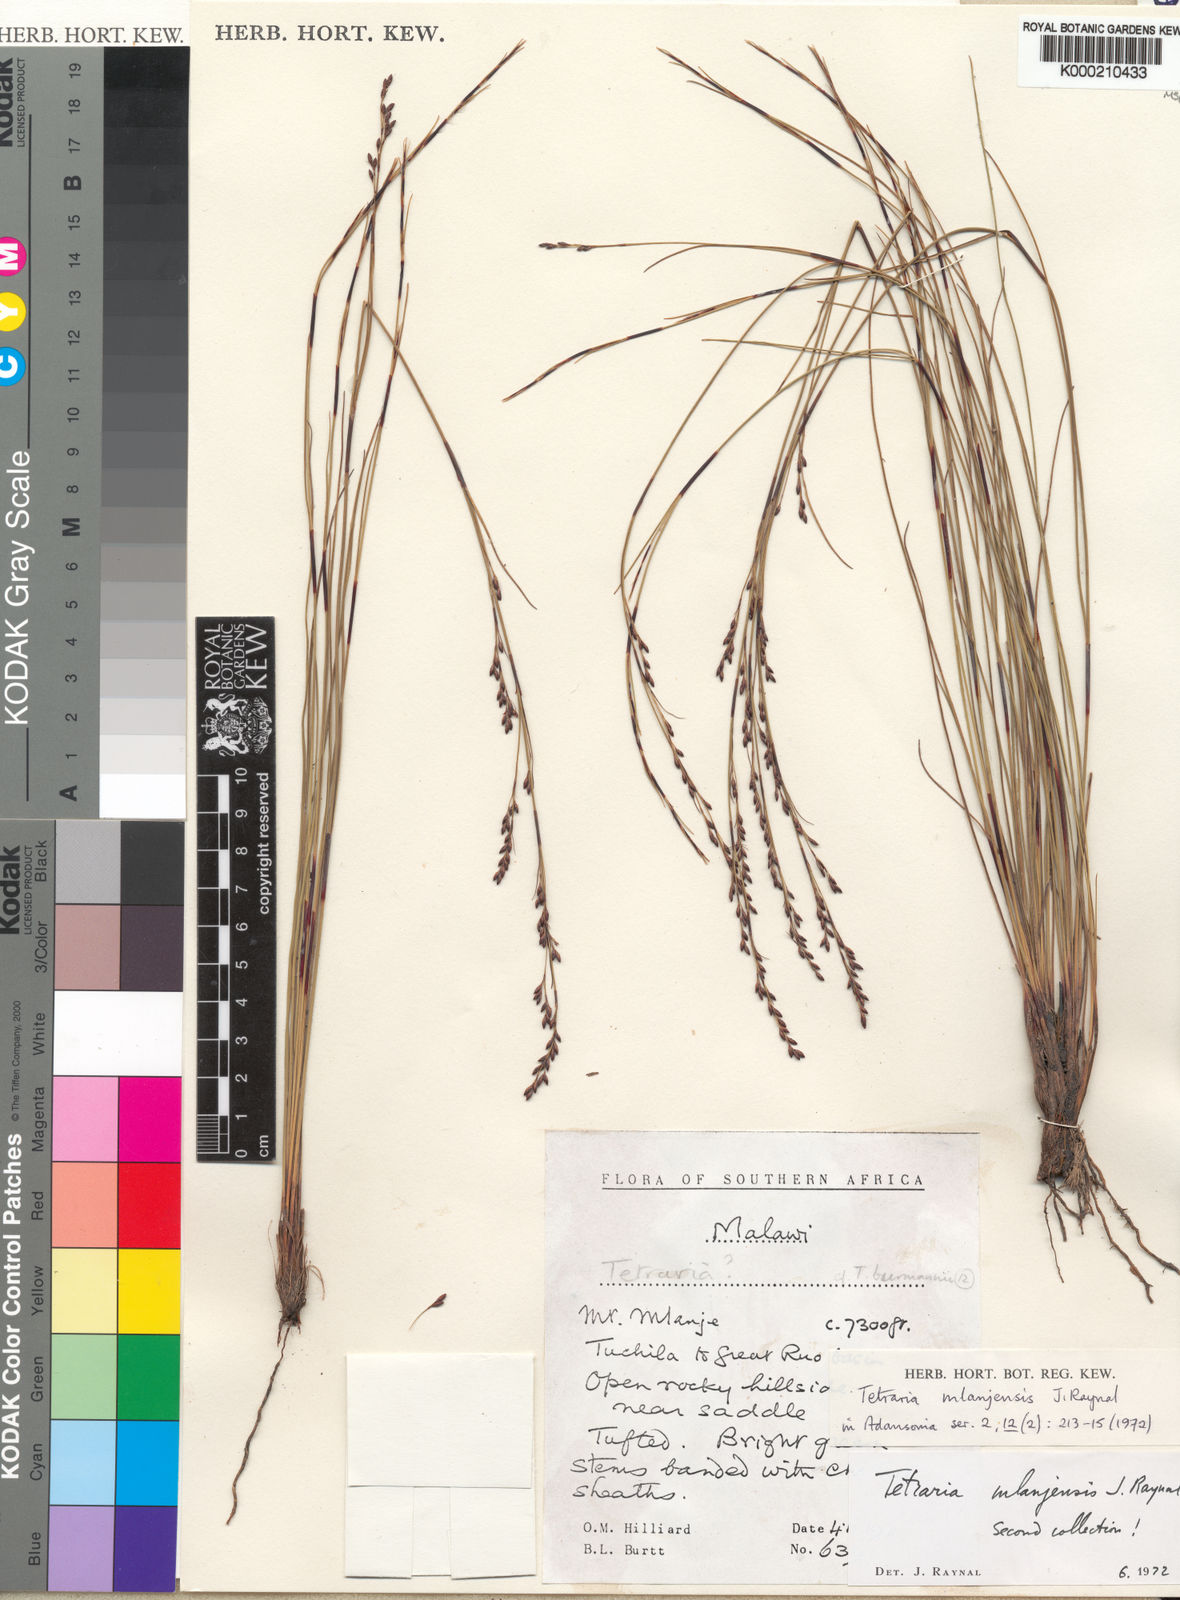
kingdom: Plantae
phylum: Tracheophyta
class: Liliopsida
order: Poales
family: Cyperaceae
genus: Tetraria
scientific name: Tetraria mlanjensis
